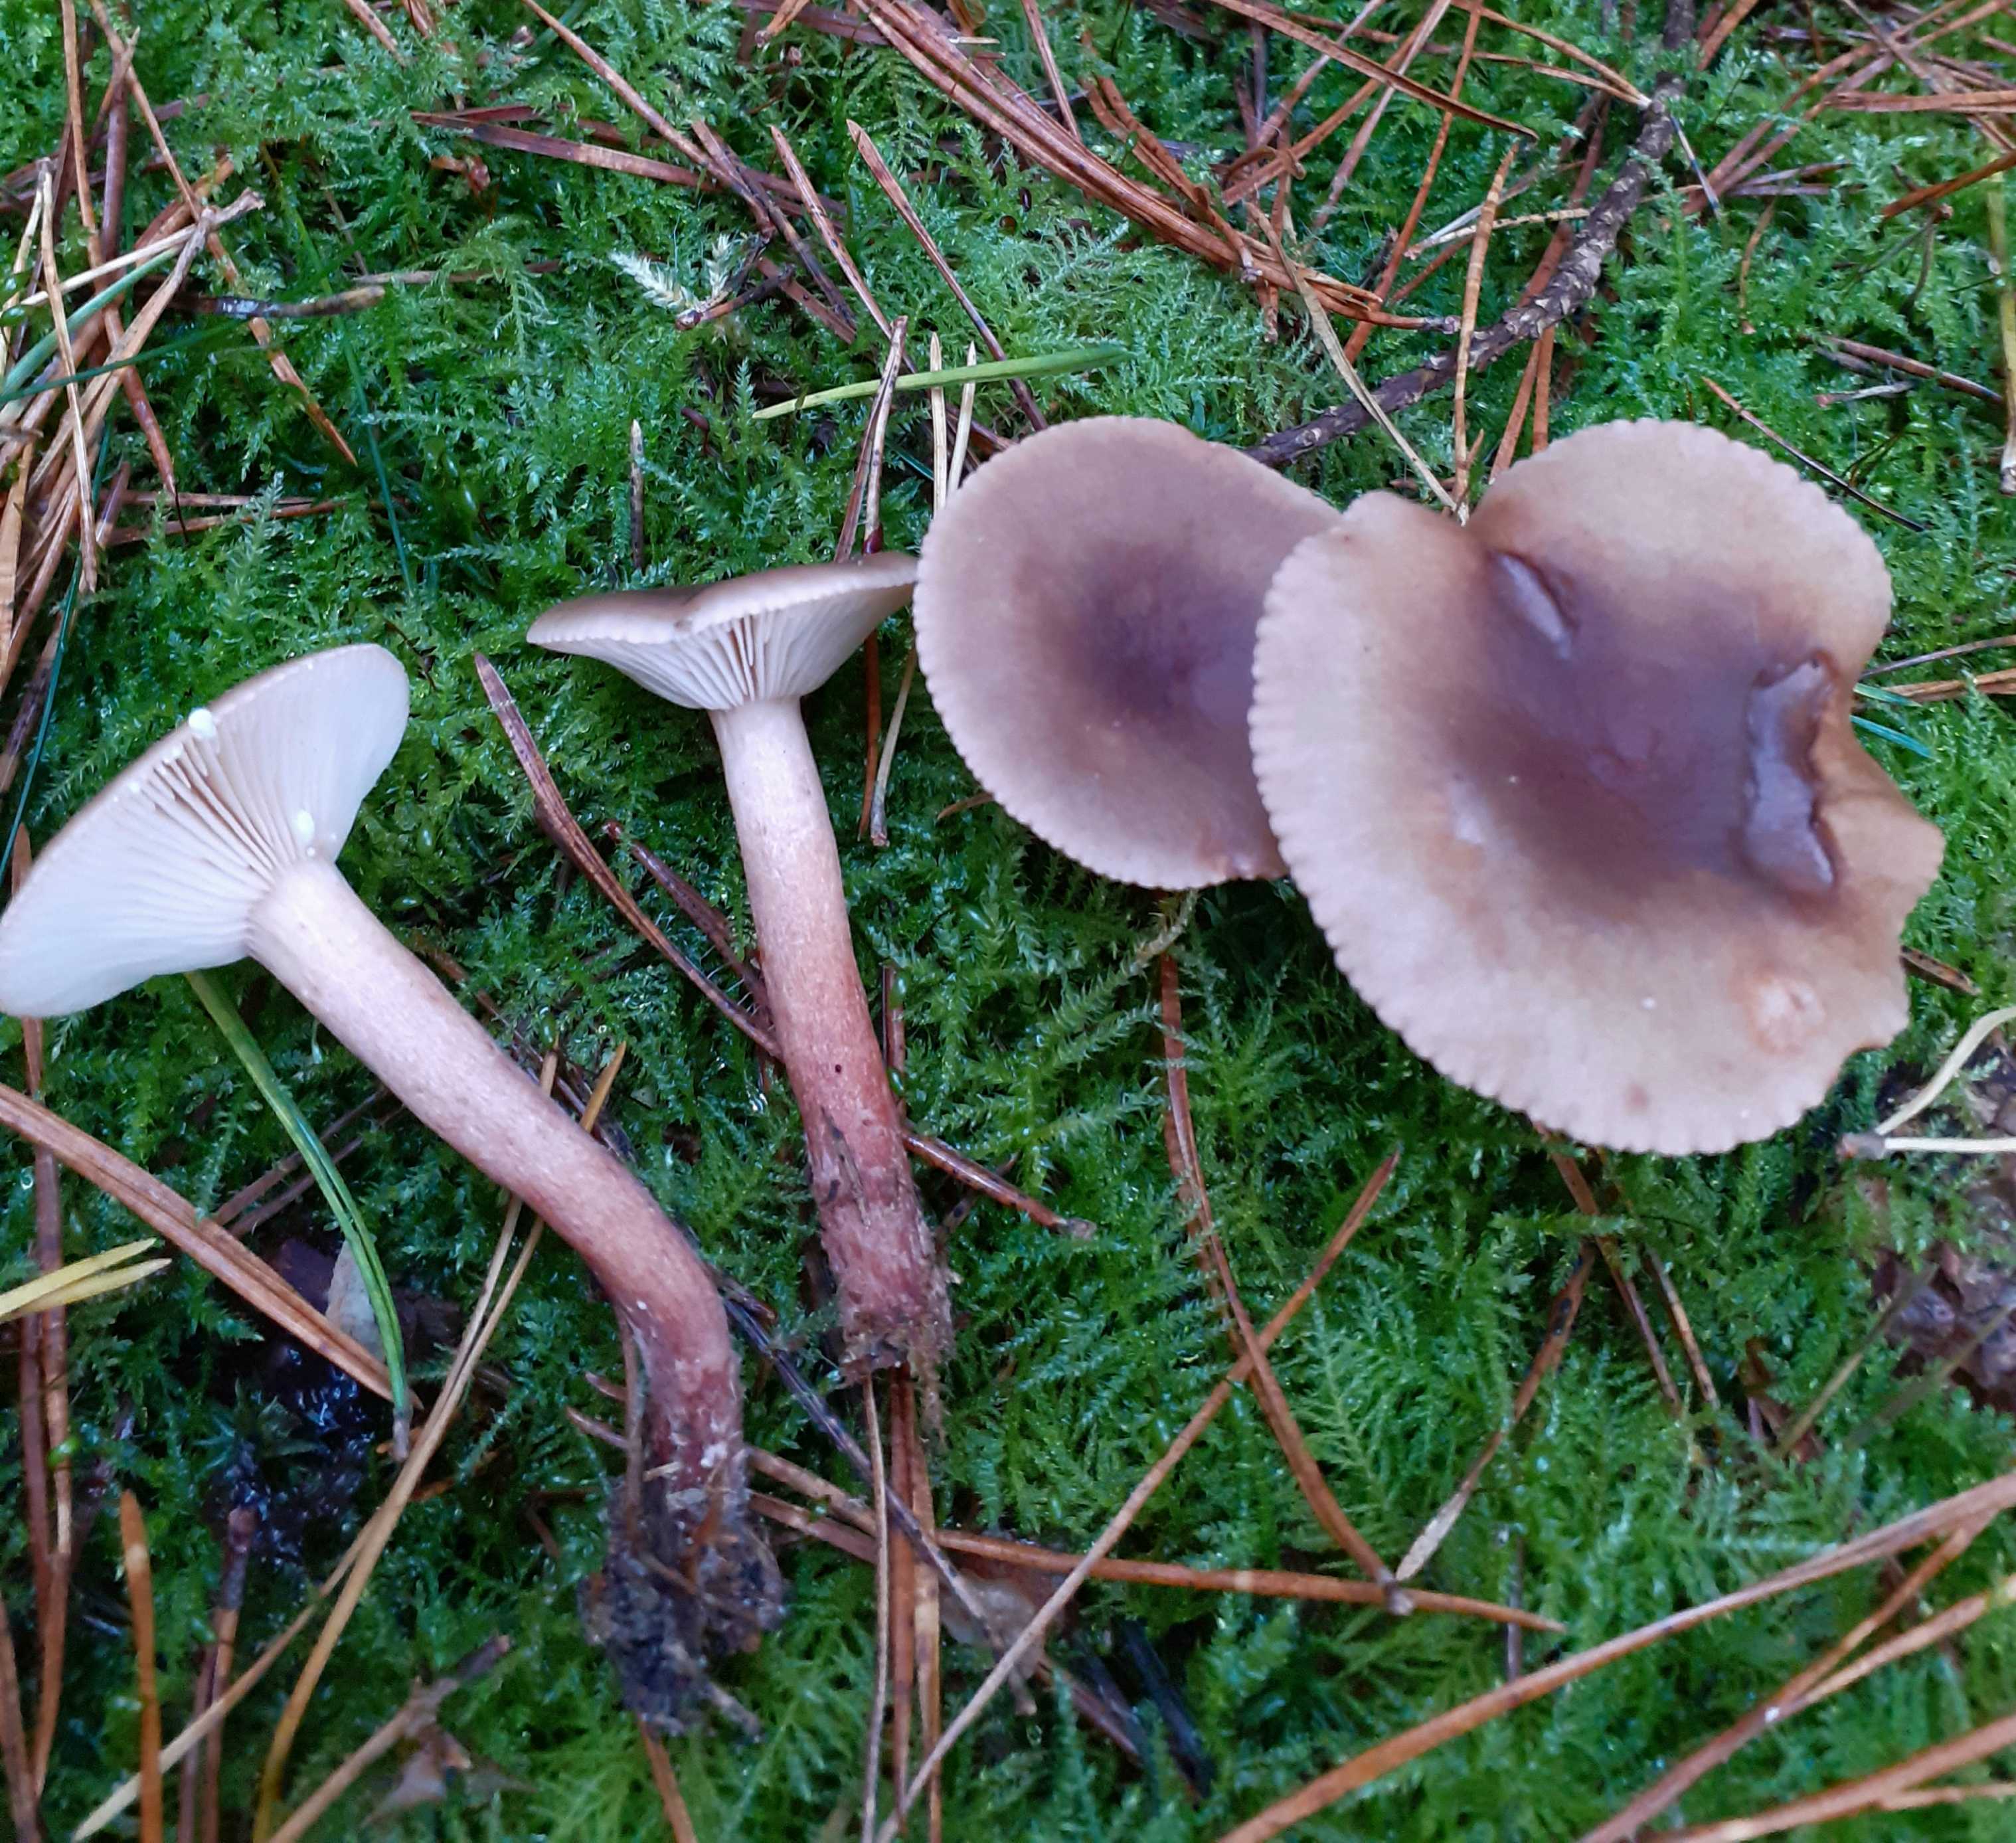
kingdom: Fungi
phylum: Basidiomycota
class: Agaricomycetes
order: Russulales
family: Russulaceae
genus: Lactarius
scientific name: Lactarius hepaticus
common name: leverbrun mælkehat
